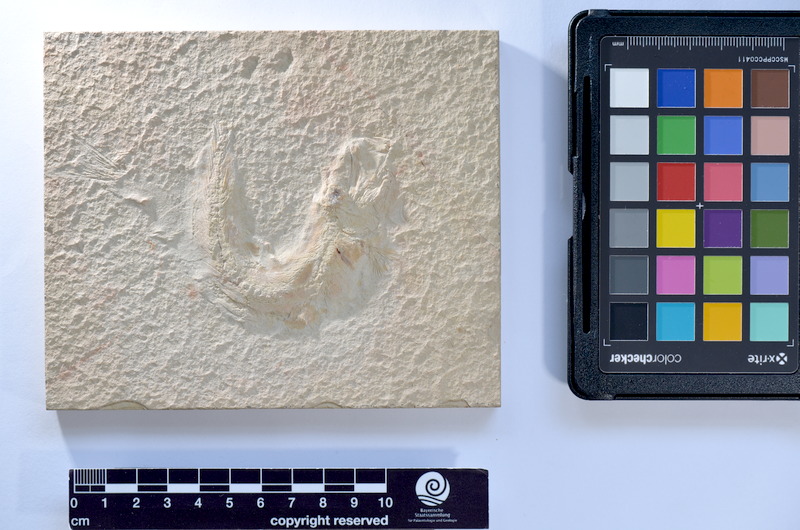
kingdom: Animalia
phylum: Chordata
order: Salmoniformes
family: Orthogonikleithridae
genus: Leptolepides
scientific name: Leptolepides sprattiformis
